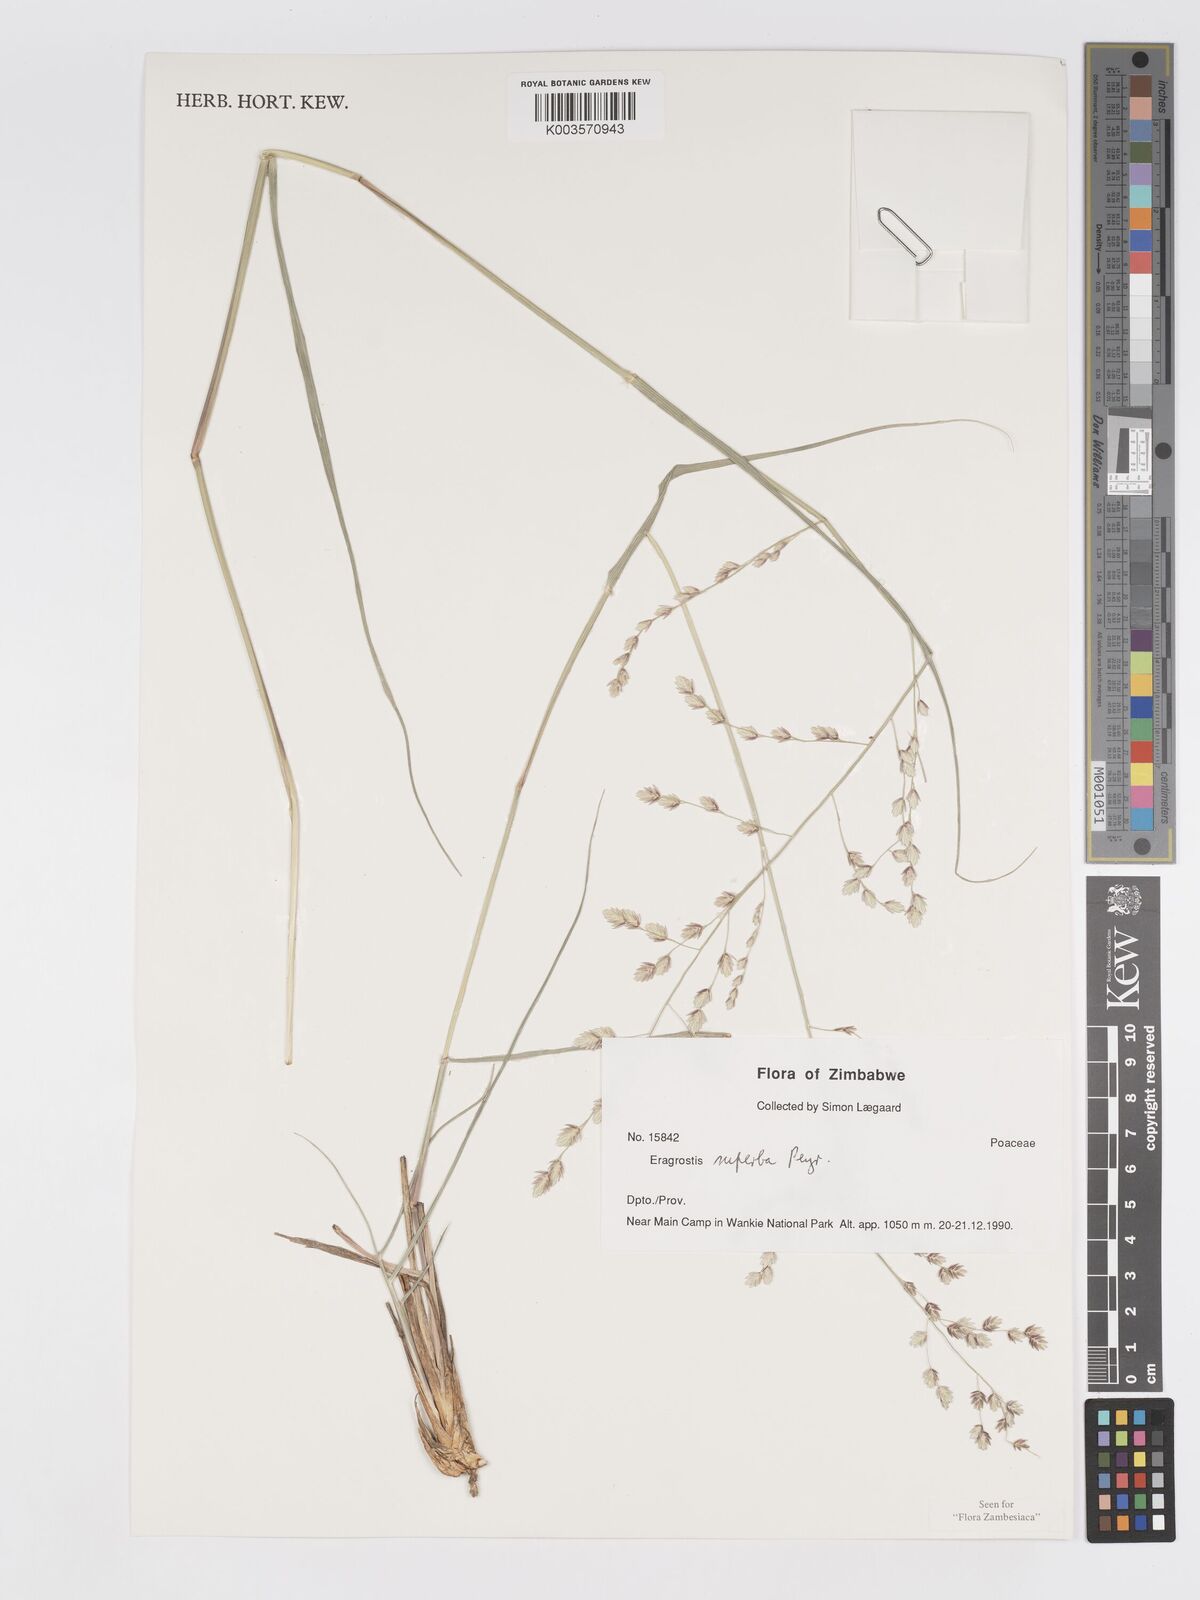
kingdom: Plantae
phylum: Tracheophyta
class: Liliopsida
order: Poales
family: Poaceae
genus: Eragrostis
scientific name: Eragrostis superba
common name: Wilman lovegrass
